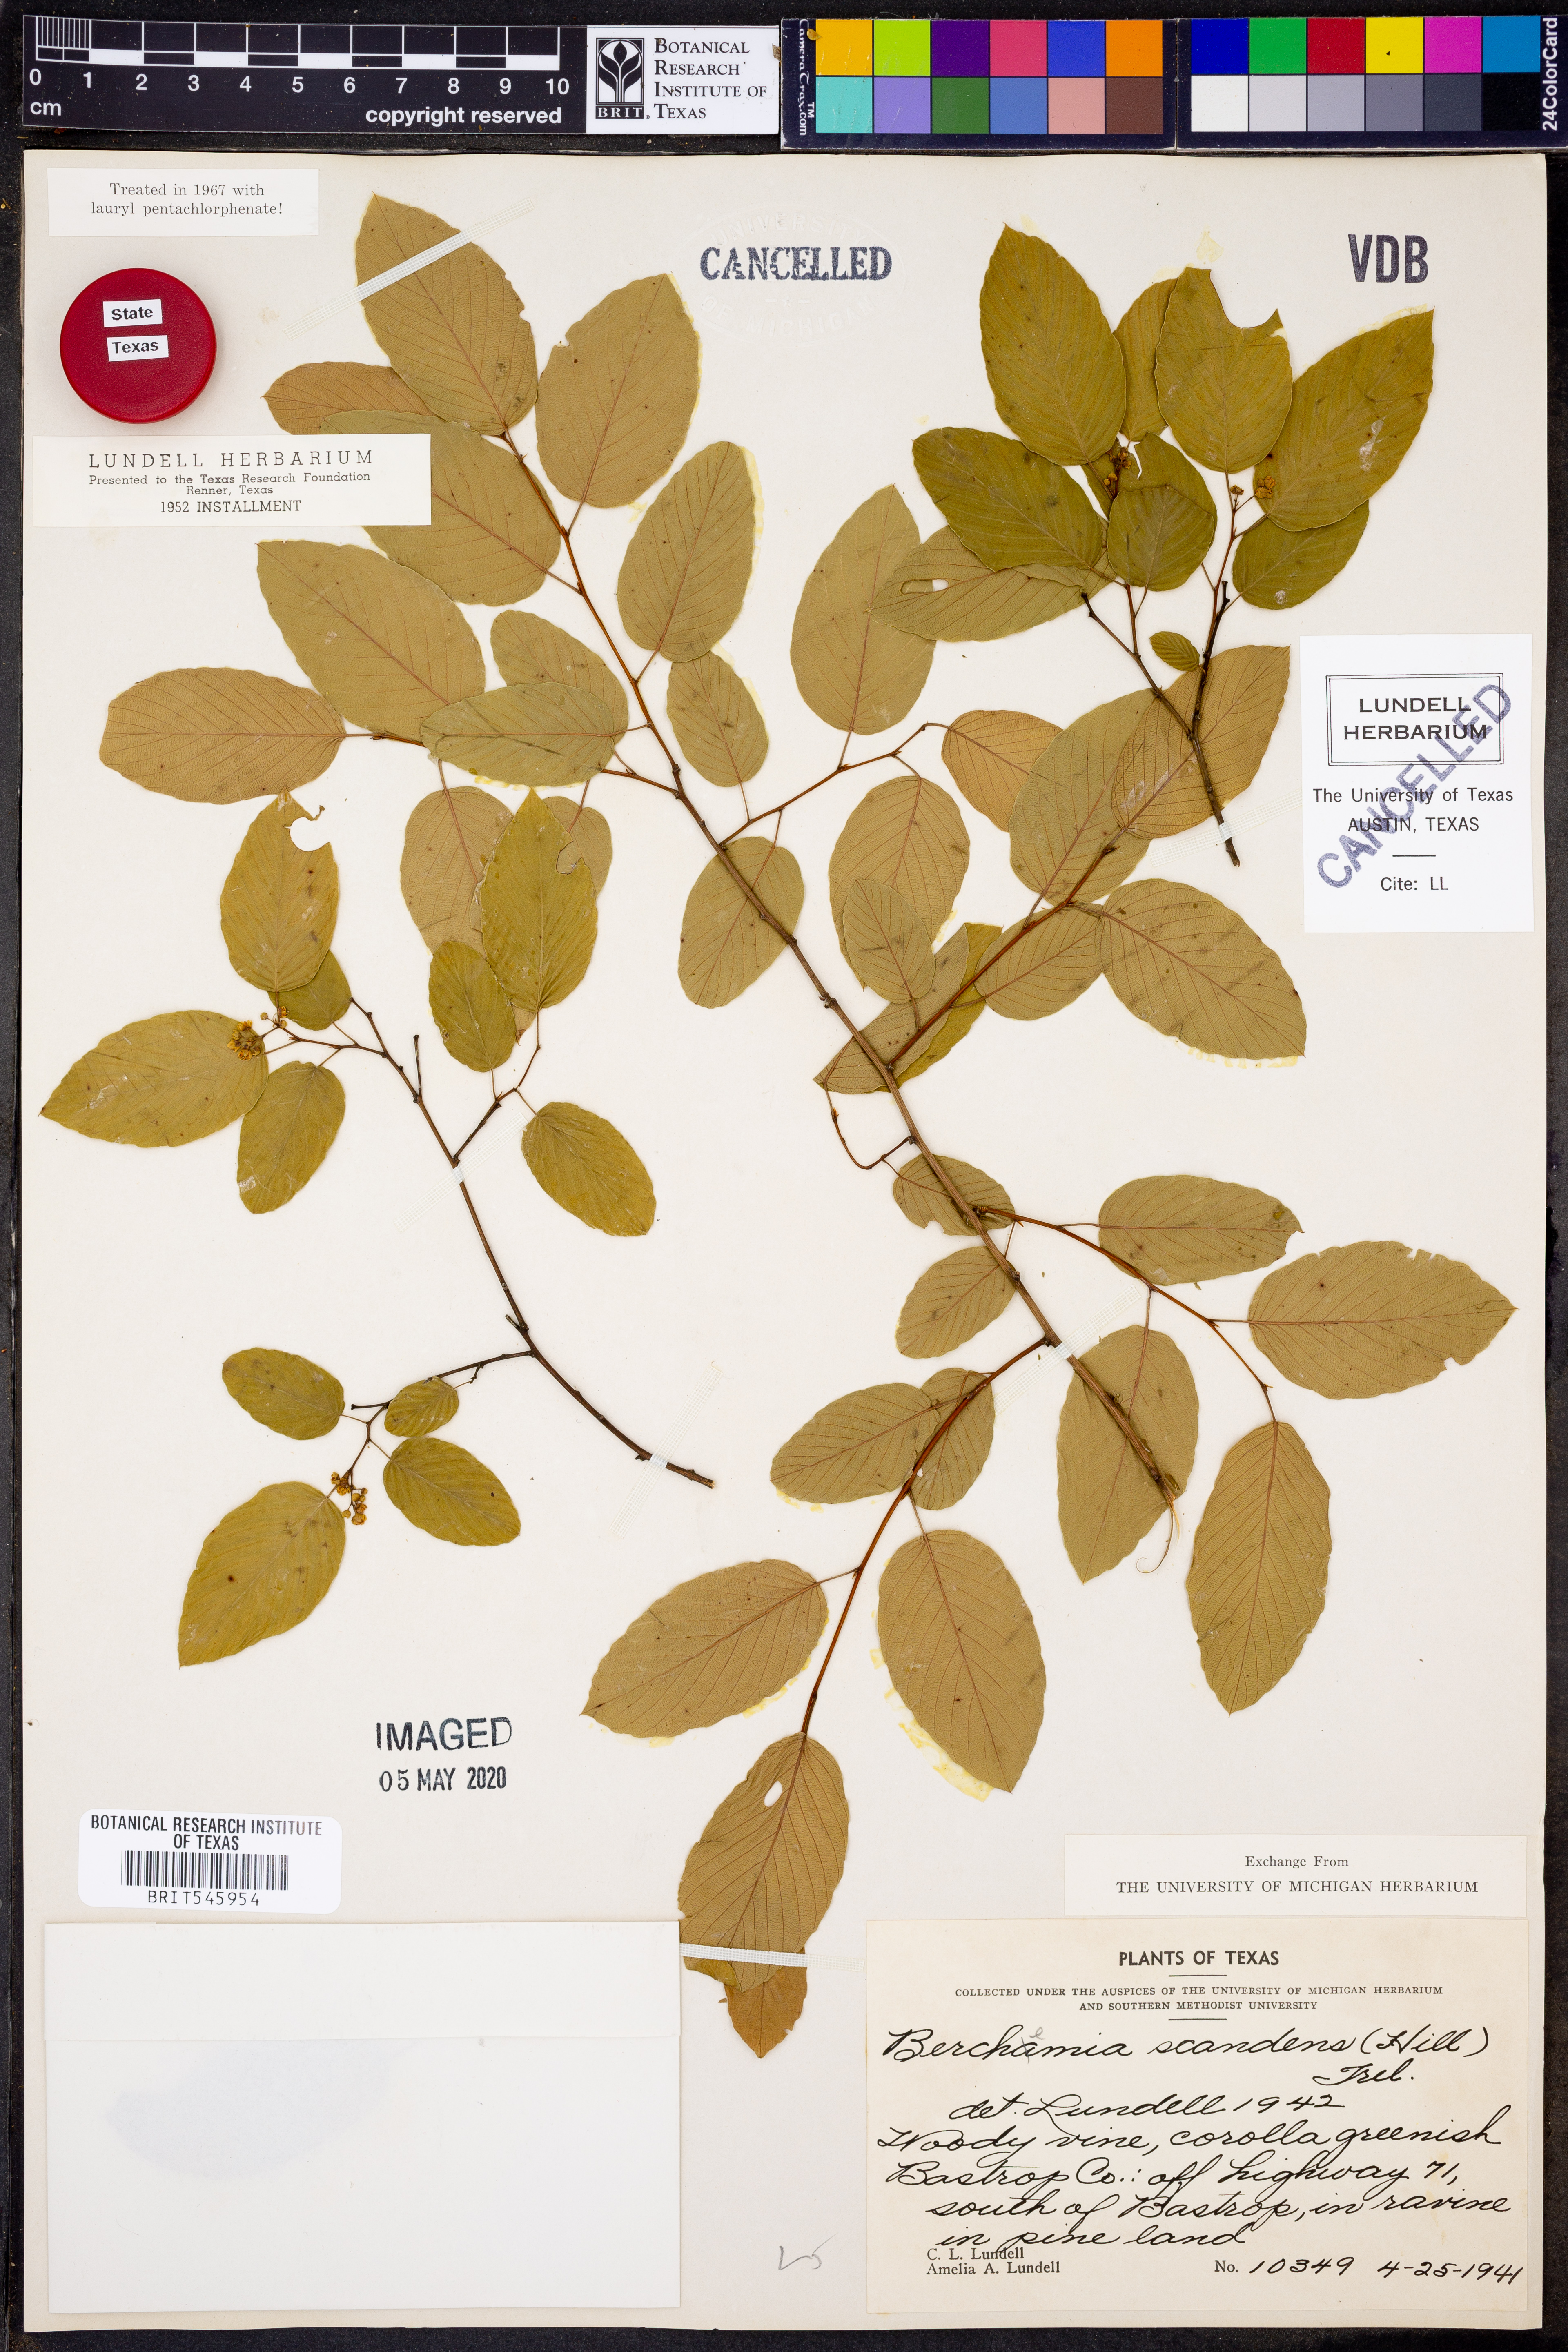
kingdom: Plantae
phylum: Tracheophyta
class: Magnoliopsida
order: Rosales
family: Rhamnaceae
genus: Berchemia
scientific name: Berchemia scandens
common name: Supplejack
